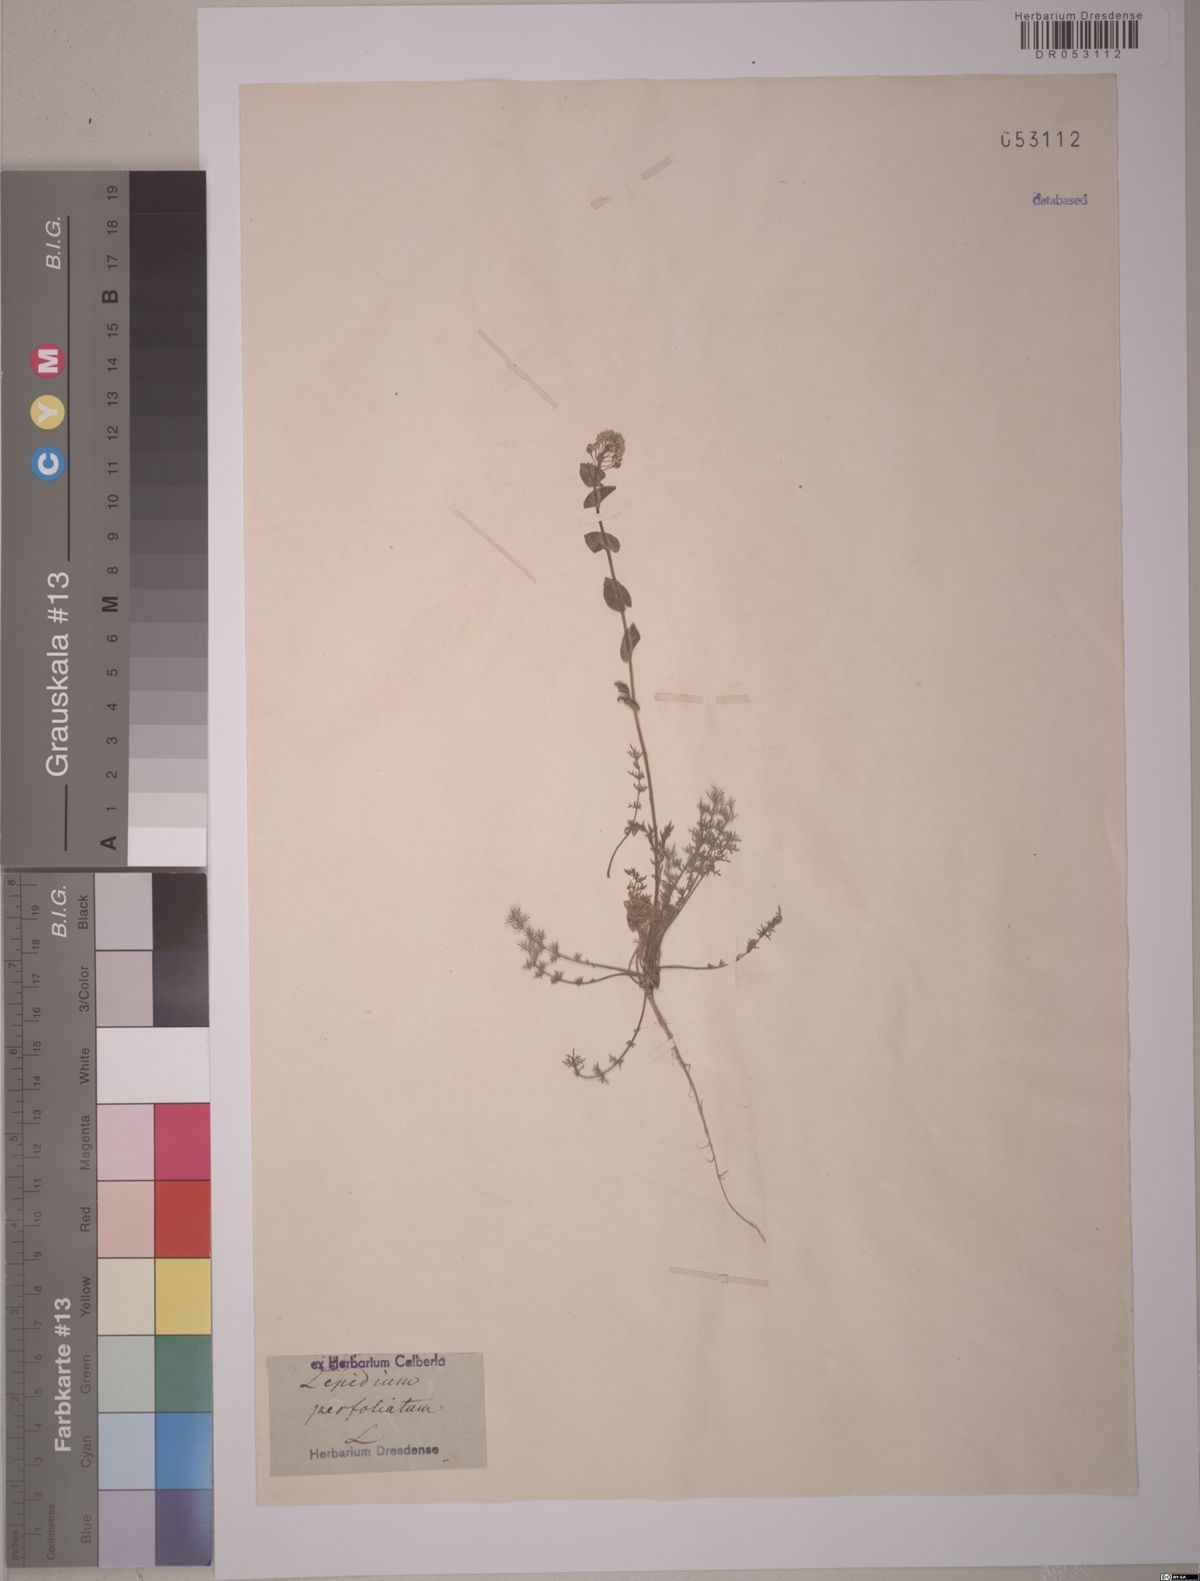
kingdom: Plantae
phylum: Tracheophyta
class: Magnoliopsida
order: Brassicales
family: Brassicaceae
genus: Lepidium
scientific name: Lepidium perfoliatum
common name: Perfoliate pepperwort
